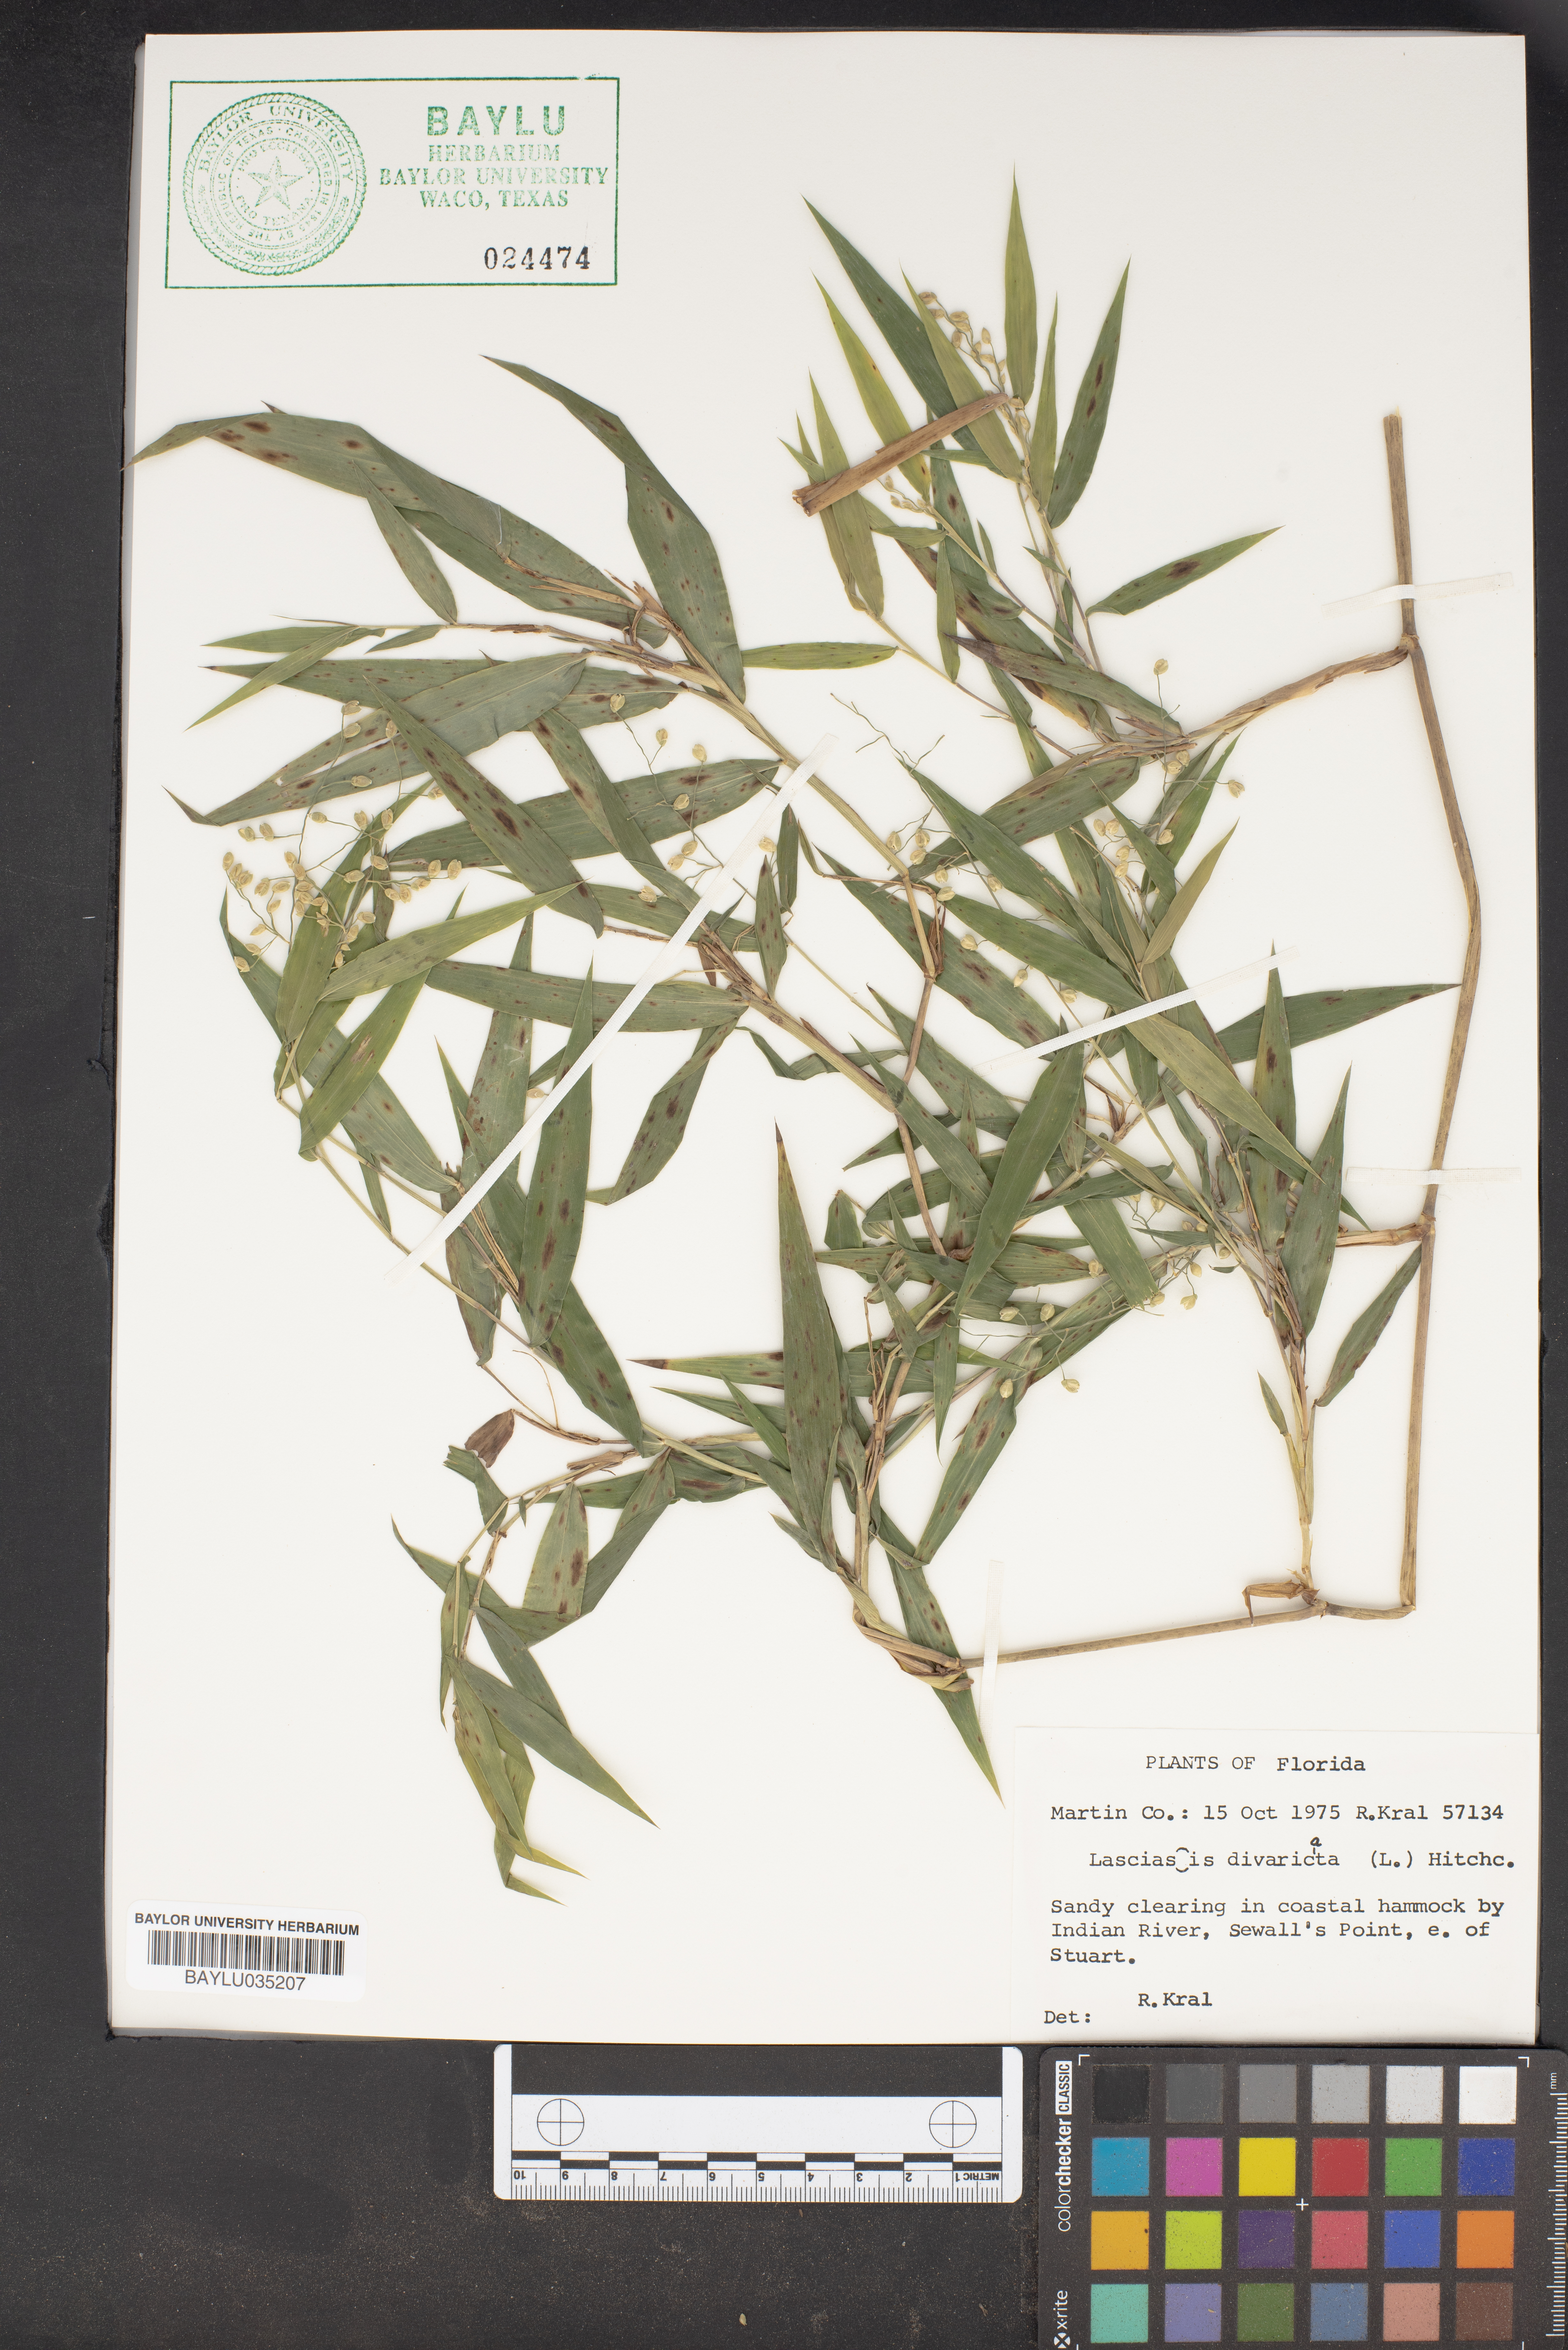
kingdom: Plantae
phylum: Tracheophyta
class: Liliopsida
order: Poales
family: Poaceae
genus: Lasiacis
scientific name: Lasiacis divaricata
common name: Smallcane
